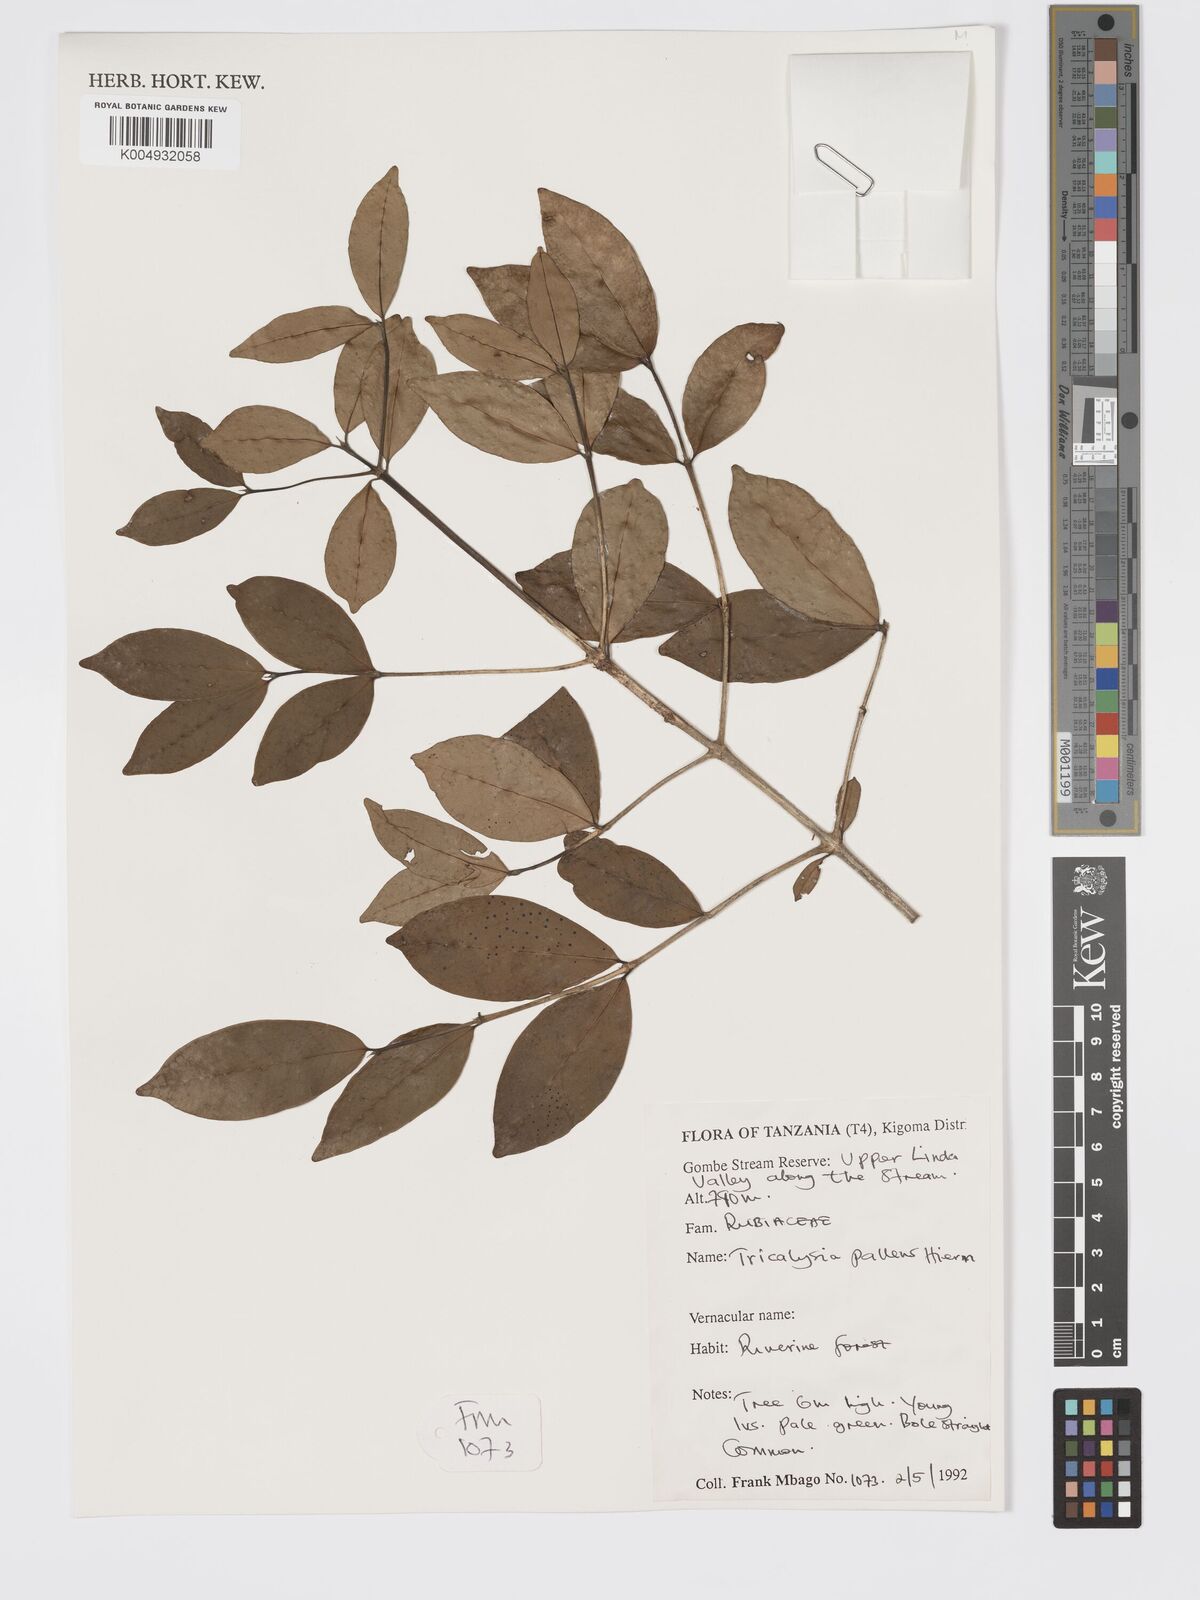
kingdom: Plantae
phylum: Tracheophyta
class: Magnoliopsida
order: Gentianales
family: Rubiaceae
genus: Tricalysia
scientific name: Tricalysia pallens
